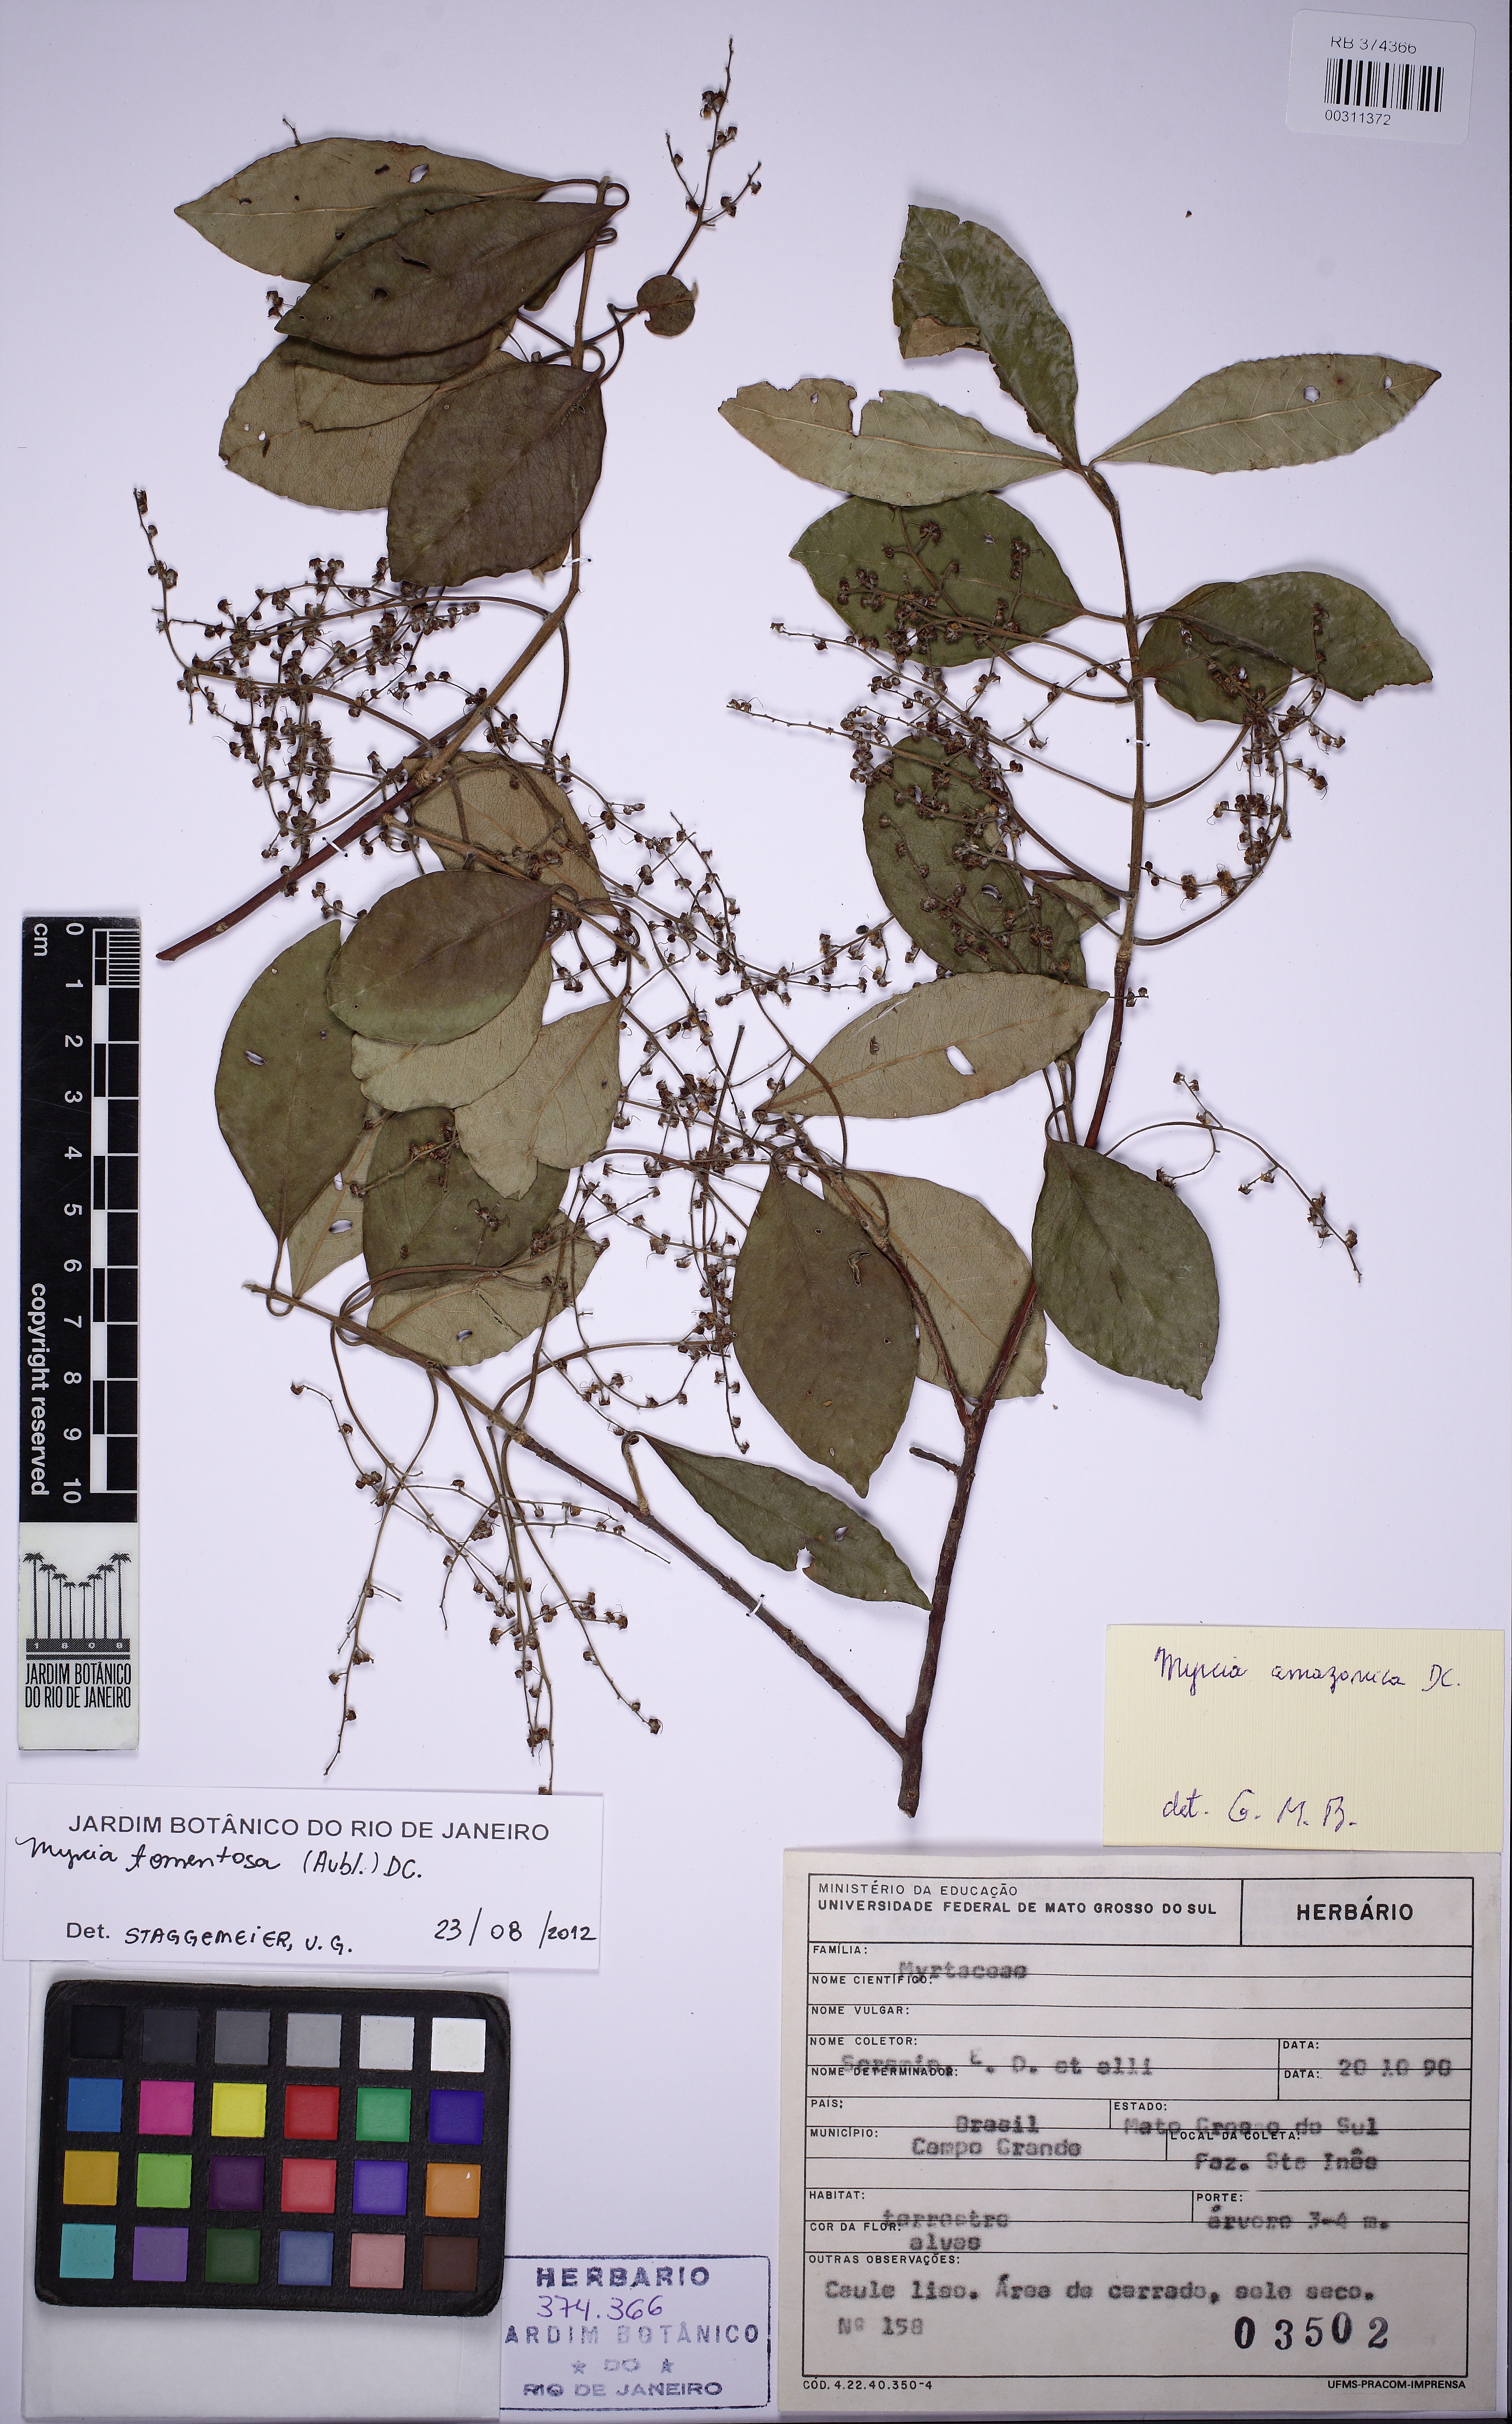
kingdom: Plantae
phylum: Tracheophyta
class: Magnoliopsida
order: Myrtales
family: Myrtaceae
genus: Myrcia
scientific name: Myrcia tomentosa
